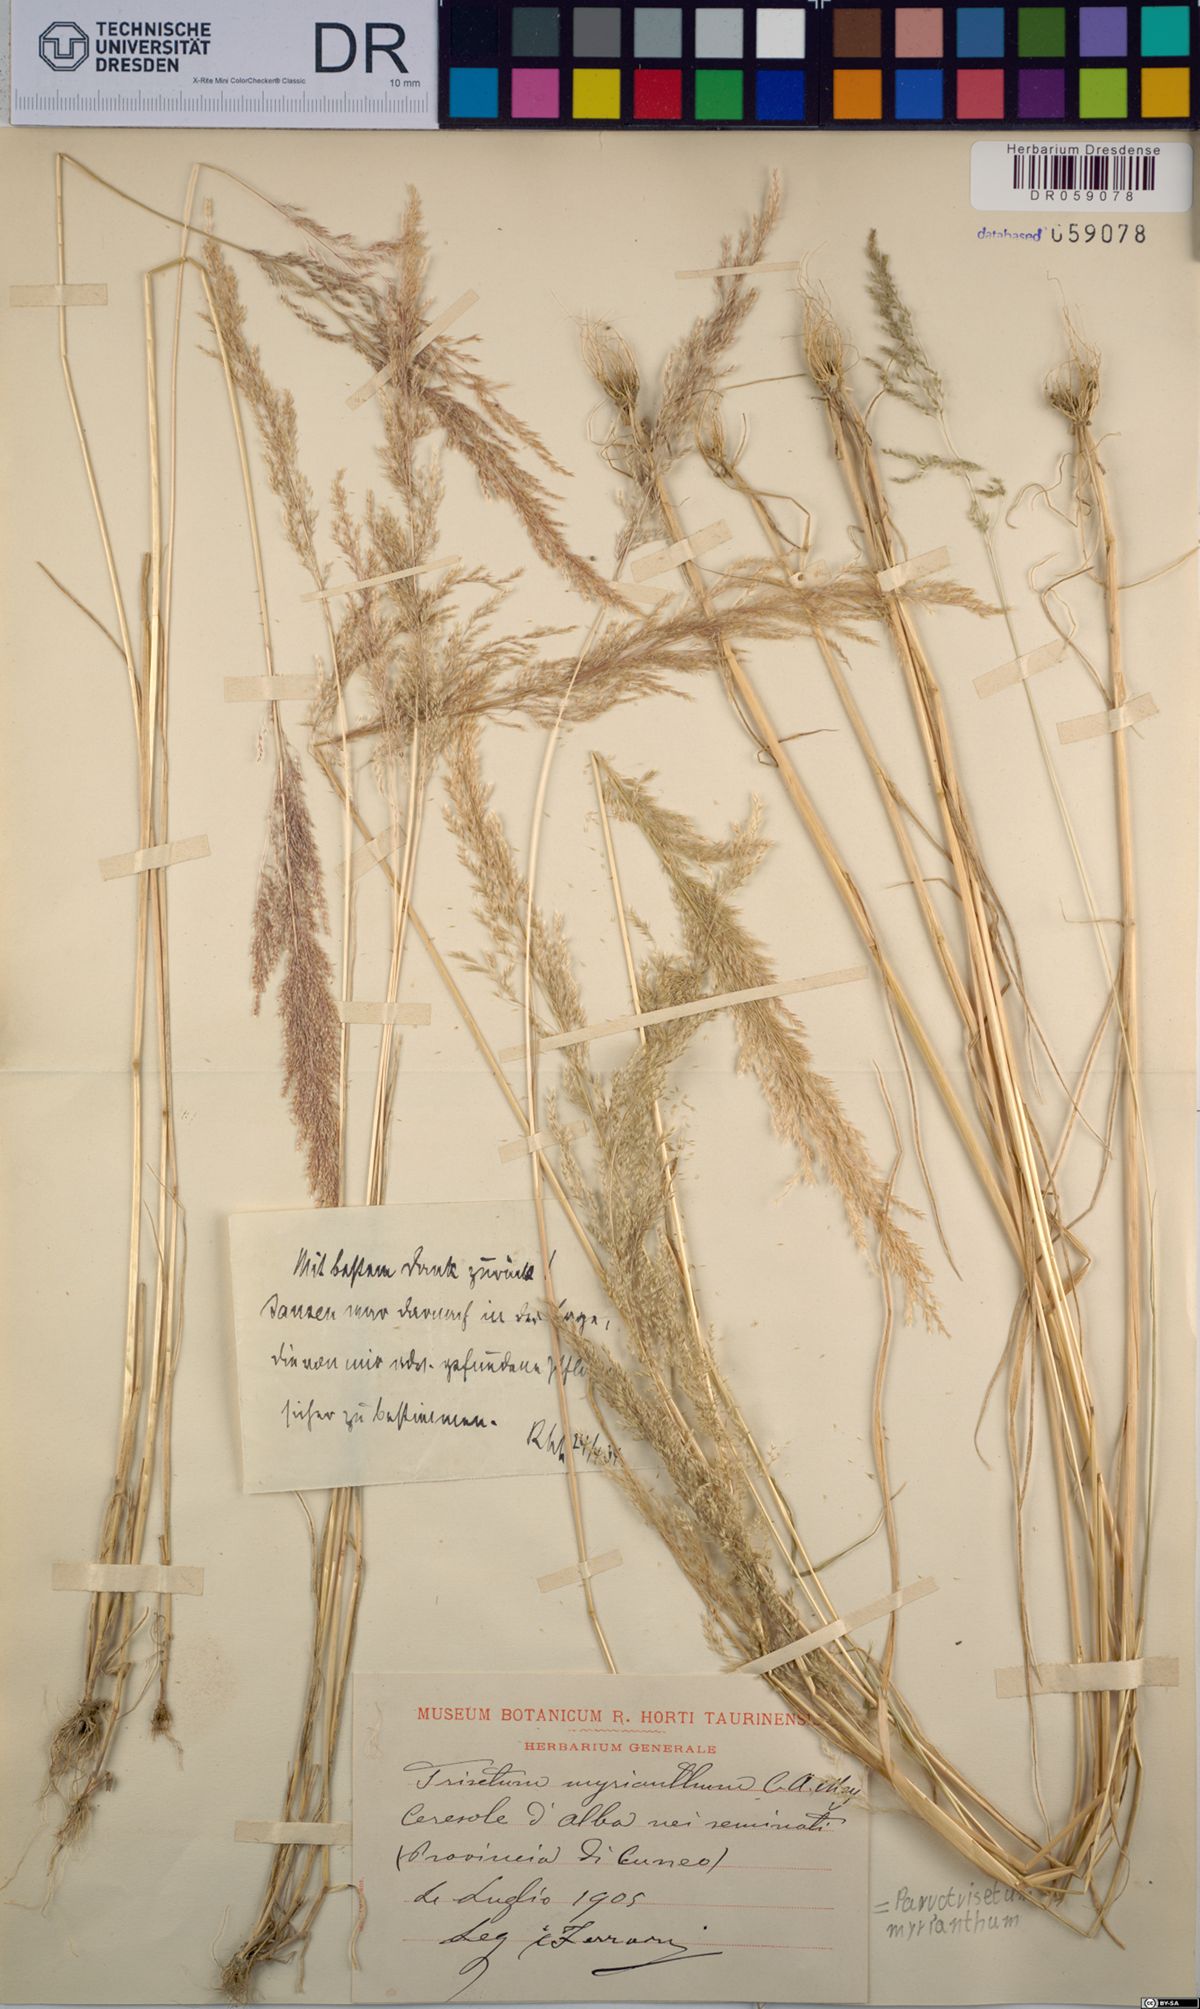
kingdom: Plantae
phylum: Tracheophyta
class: Liliopsida
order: Poales
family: Poaceae
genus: Parvotrisetum
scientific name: Parvotrisetum myrianthum
